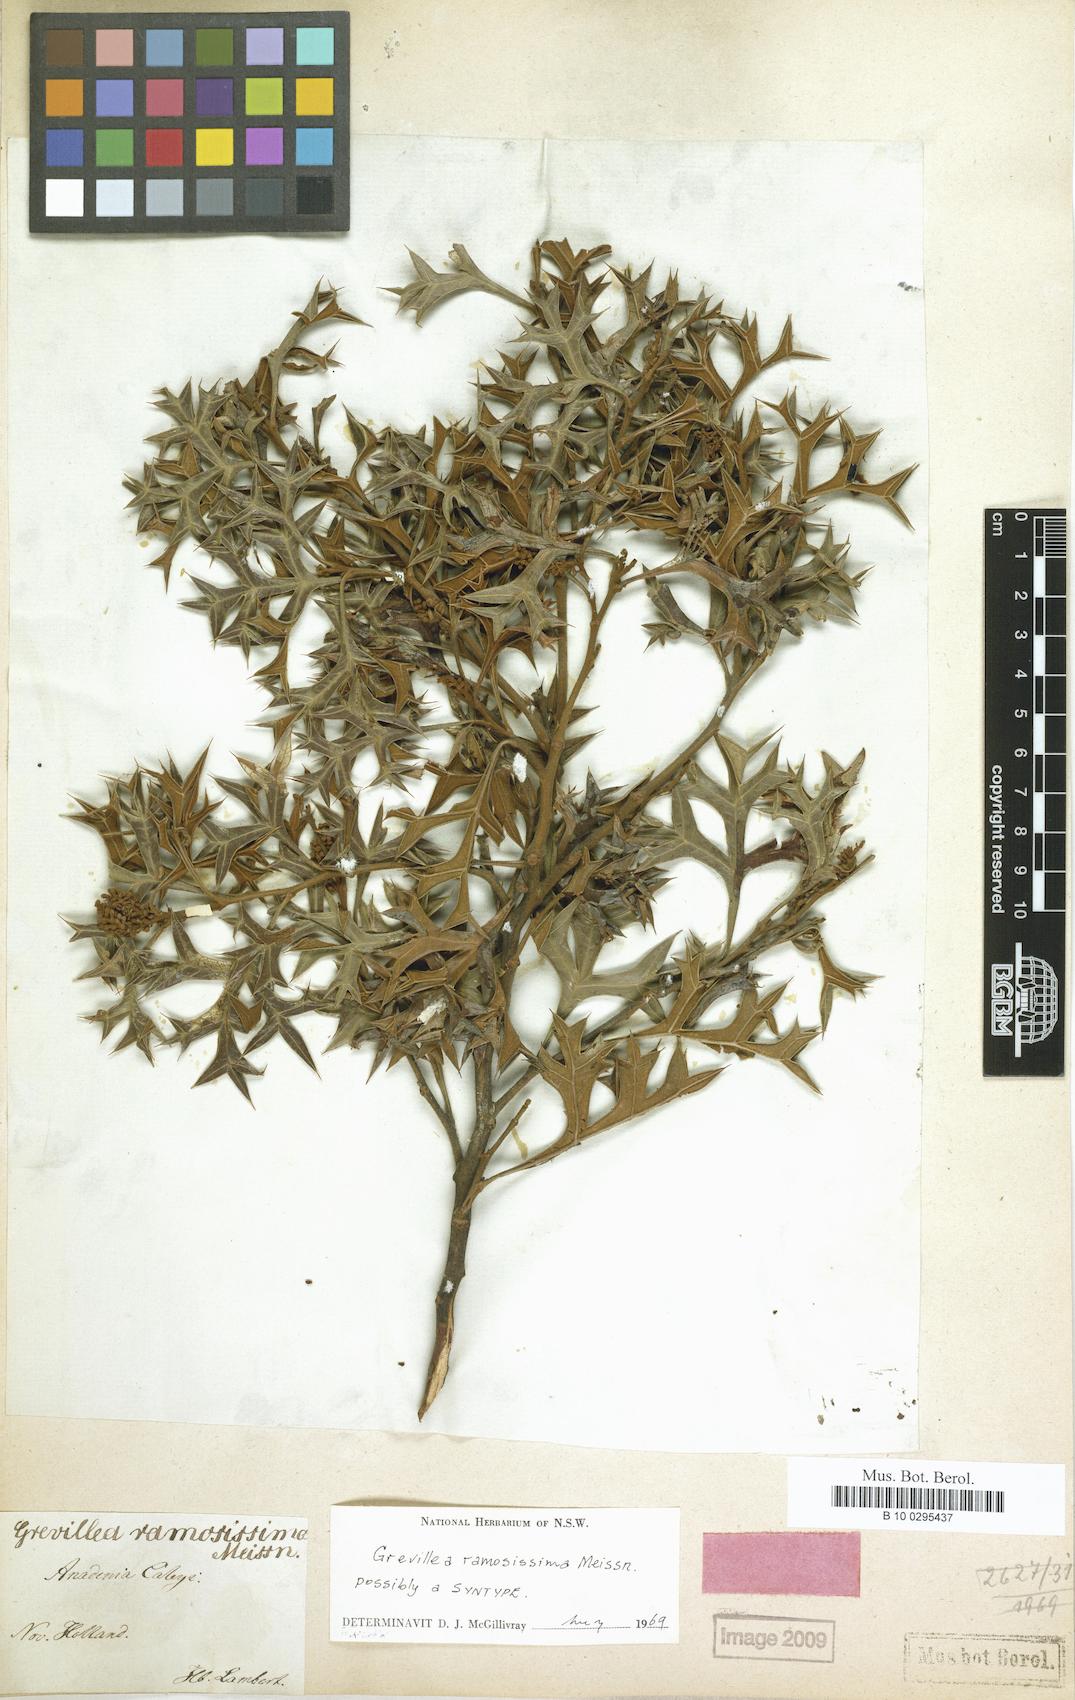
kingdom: Plantae
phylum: Tracheophyta
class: Magnoliopsida
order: Proteales
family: Proteaceae
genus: Grevillea
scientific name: Grevillea ramosissima
